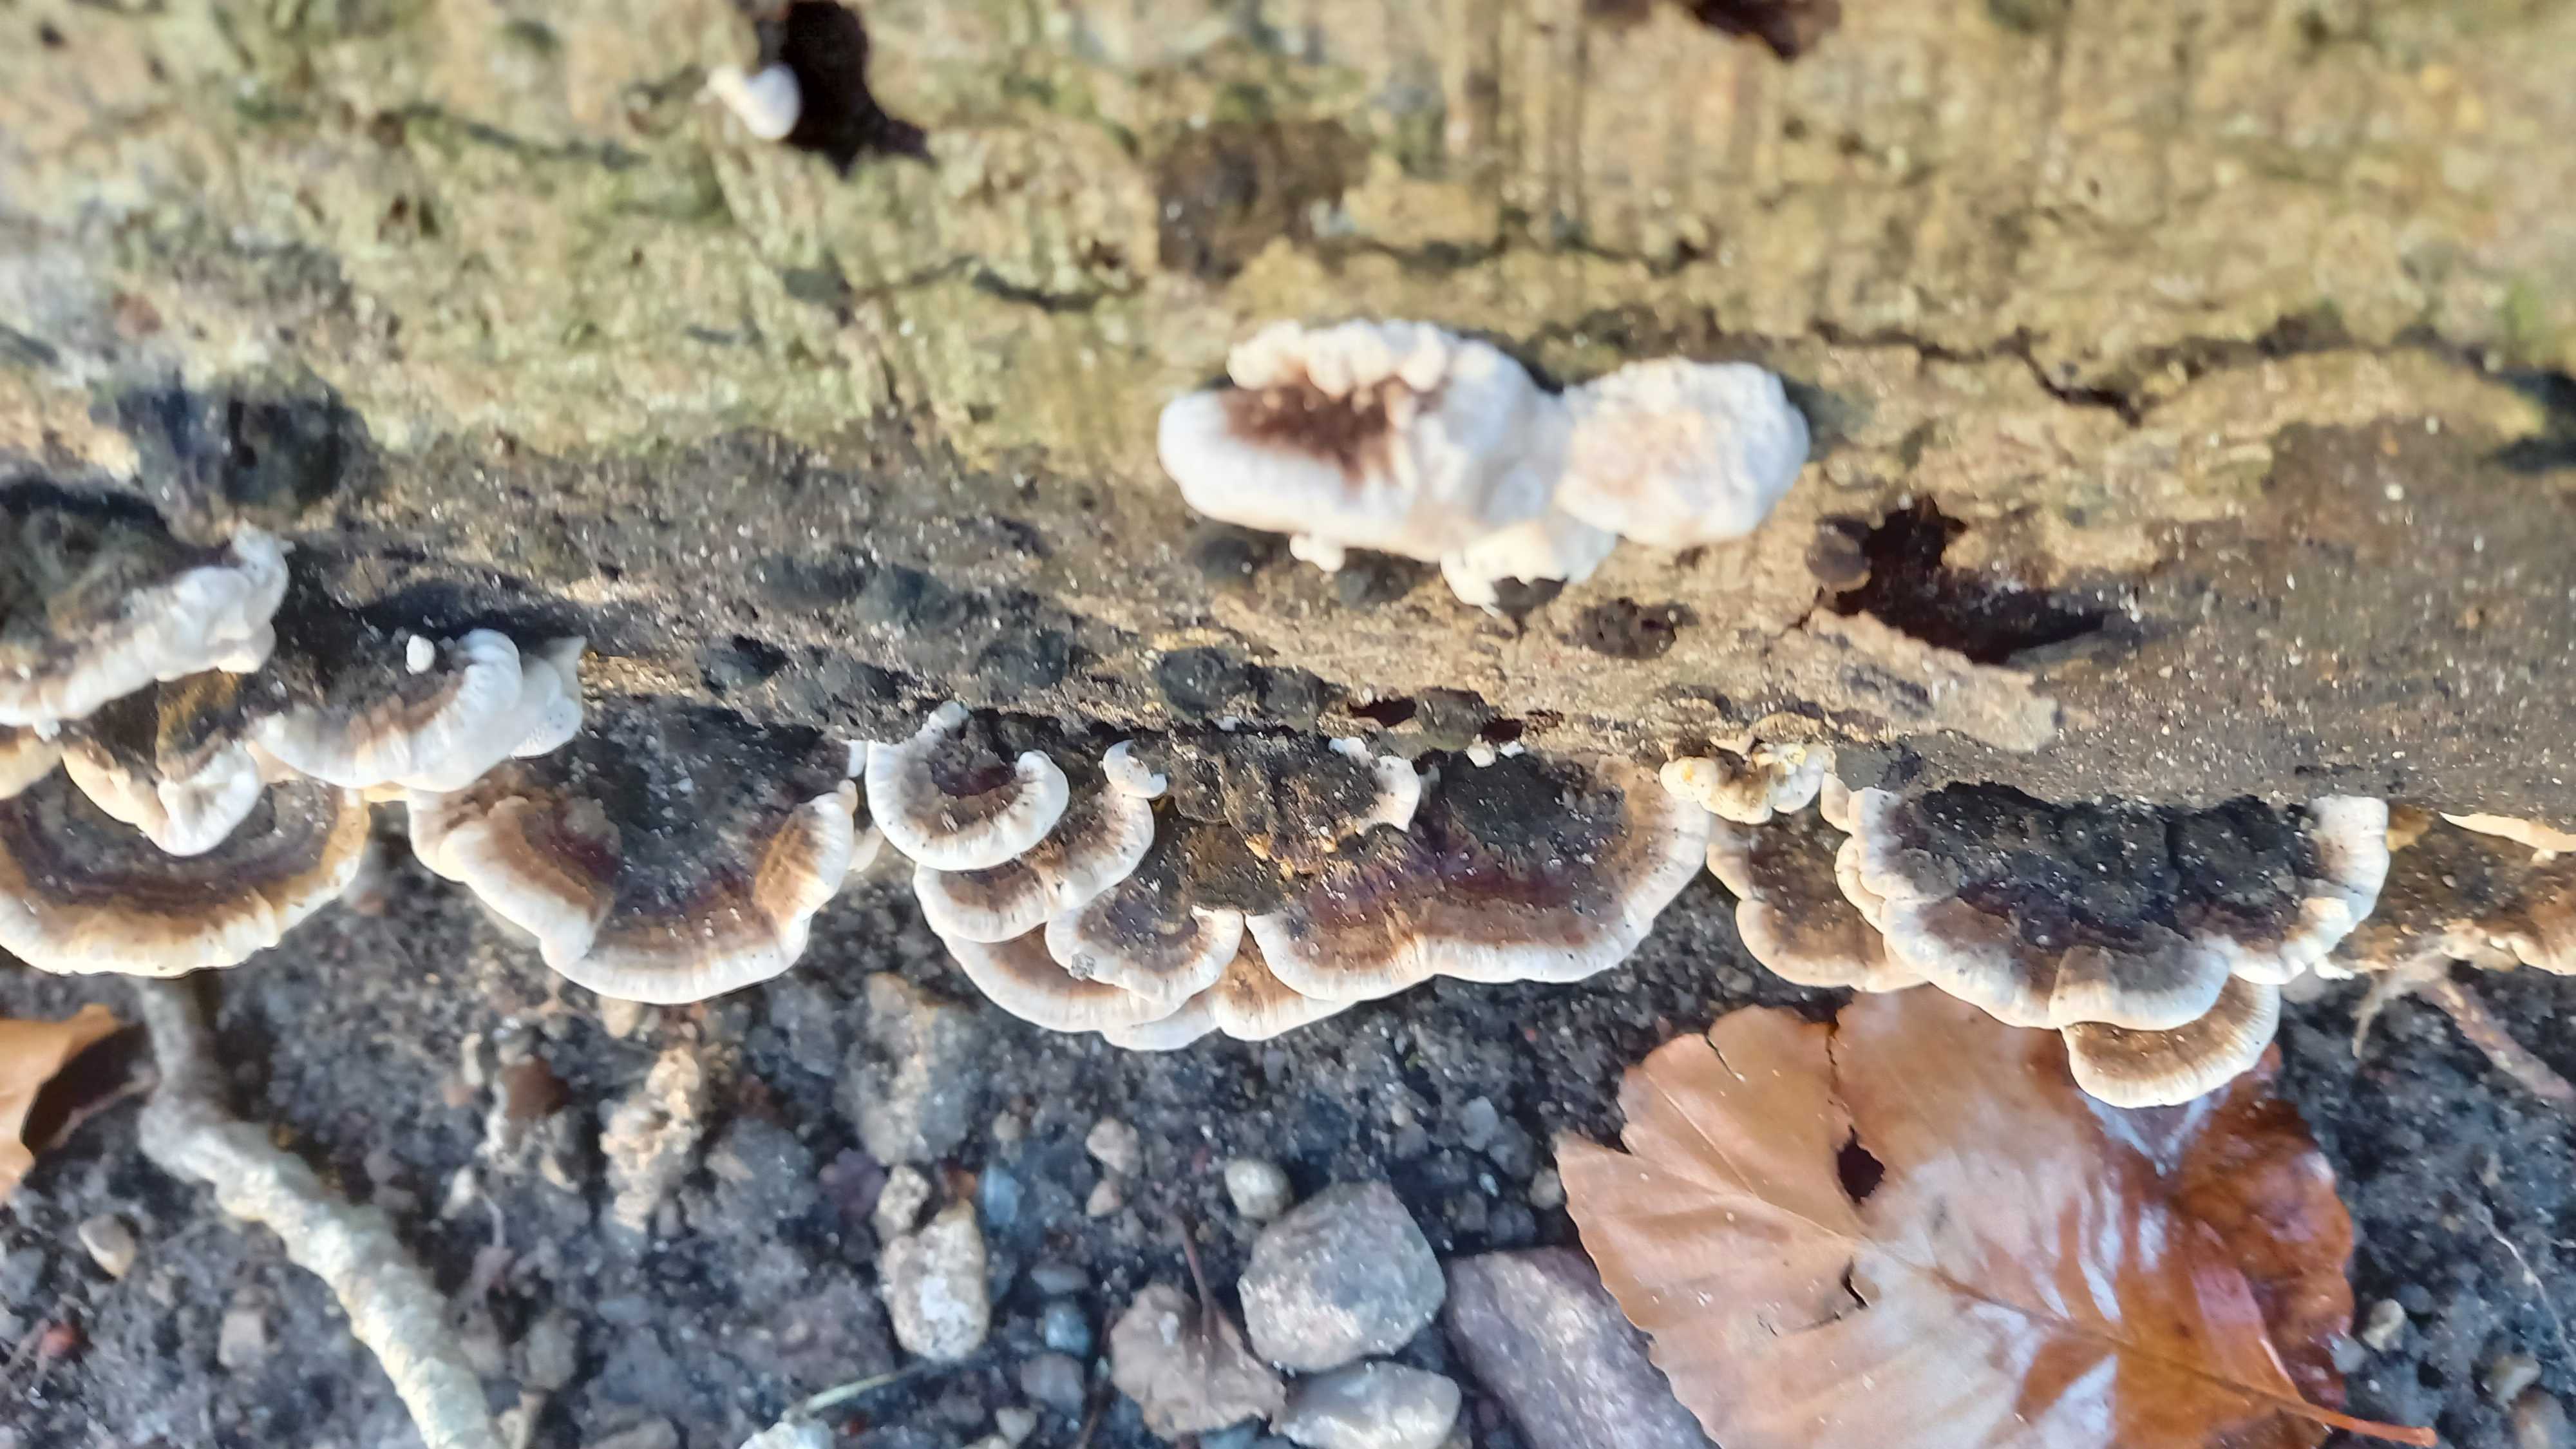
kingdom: Fungi
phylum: Basidiomycota
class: Agaricomycetes
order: Polyporales
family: Polyporaceae
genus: Trametes
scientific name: Trametes versicolor
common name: broget læderporesvamp
